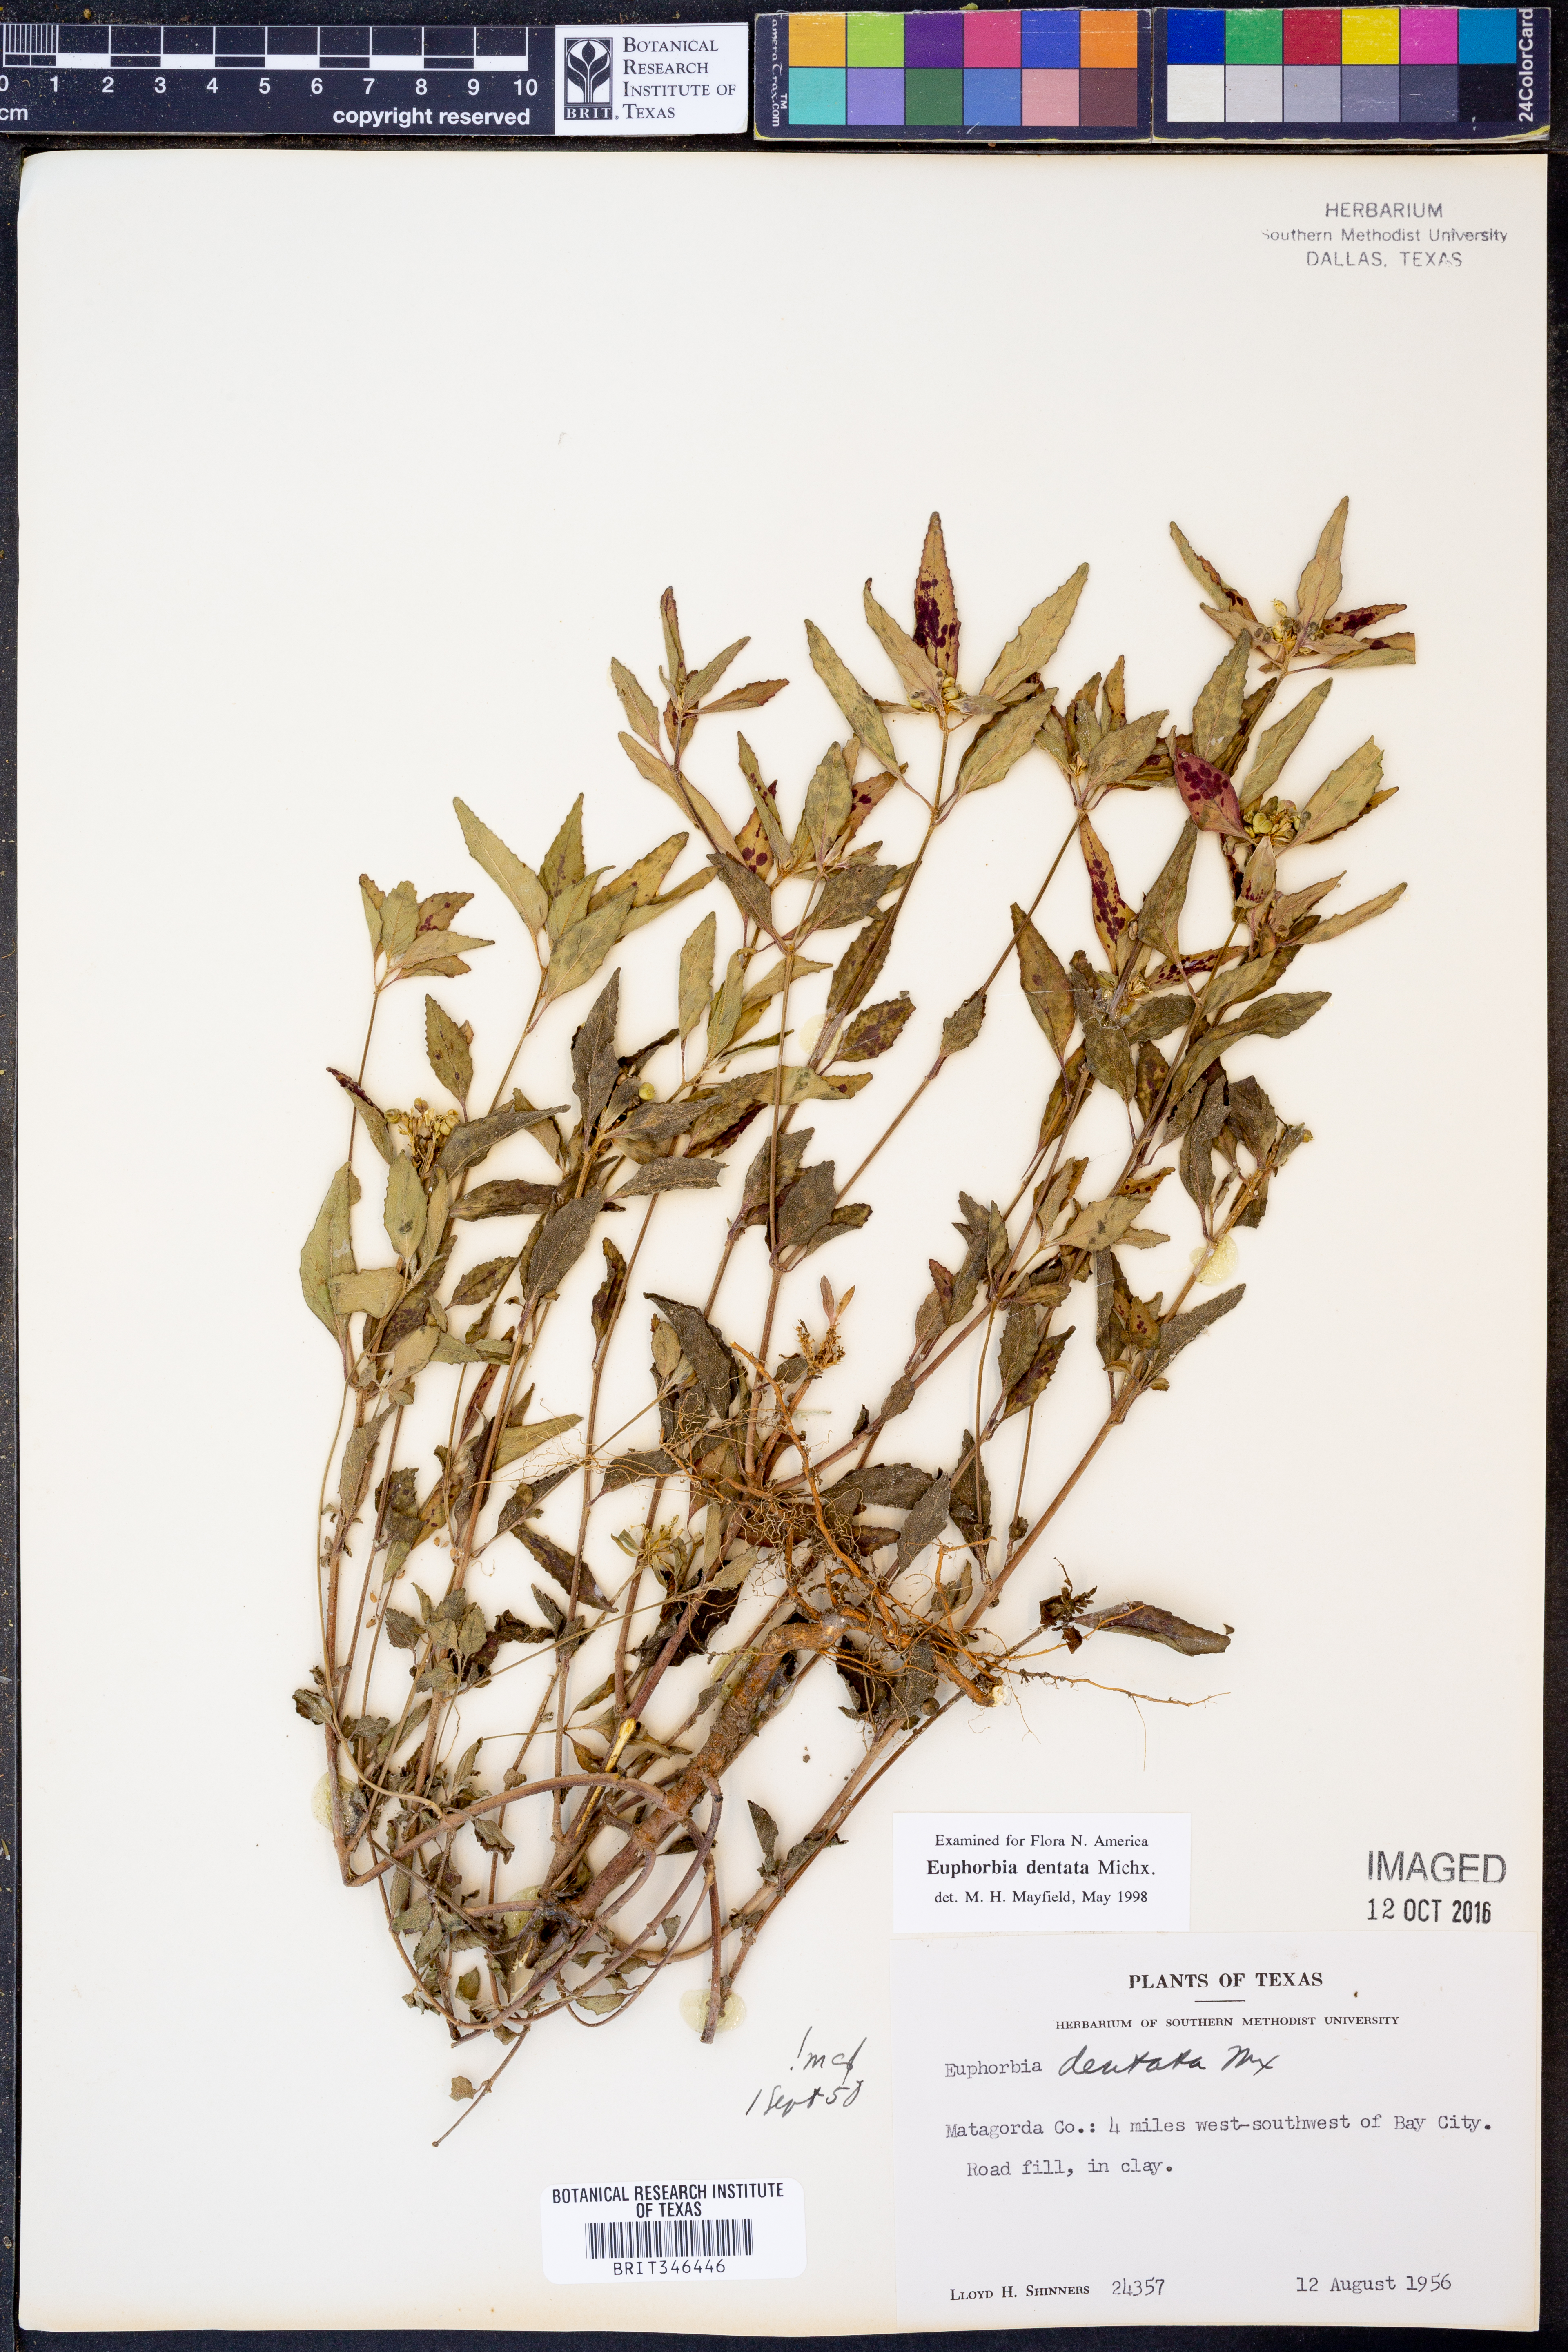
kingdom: Plantae
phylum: Tracheophyta
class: Magnoliopsida
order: Malpighiales
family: Euphorbiaceae
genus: Euphorbia
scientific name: Euphorbia dentata
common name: Dentate spurge
